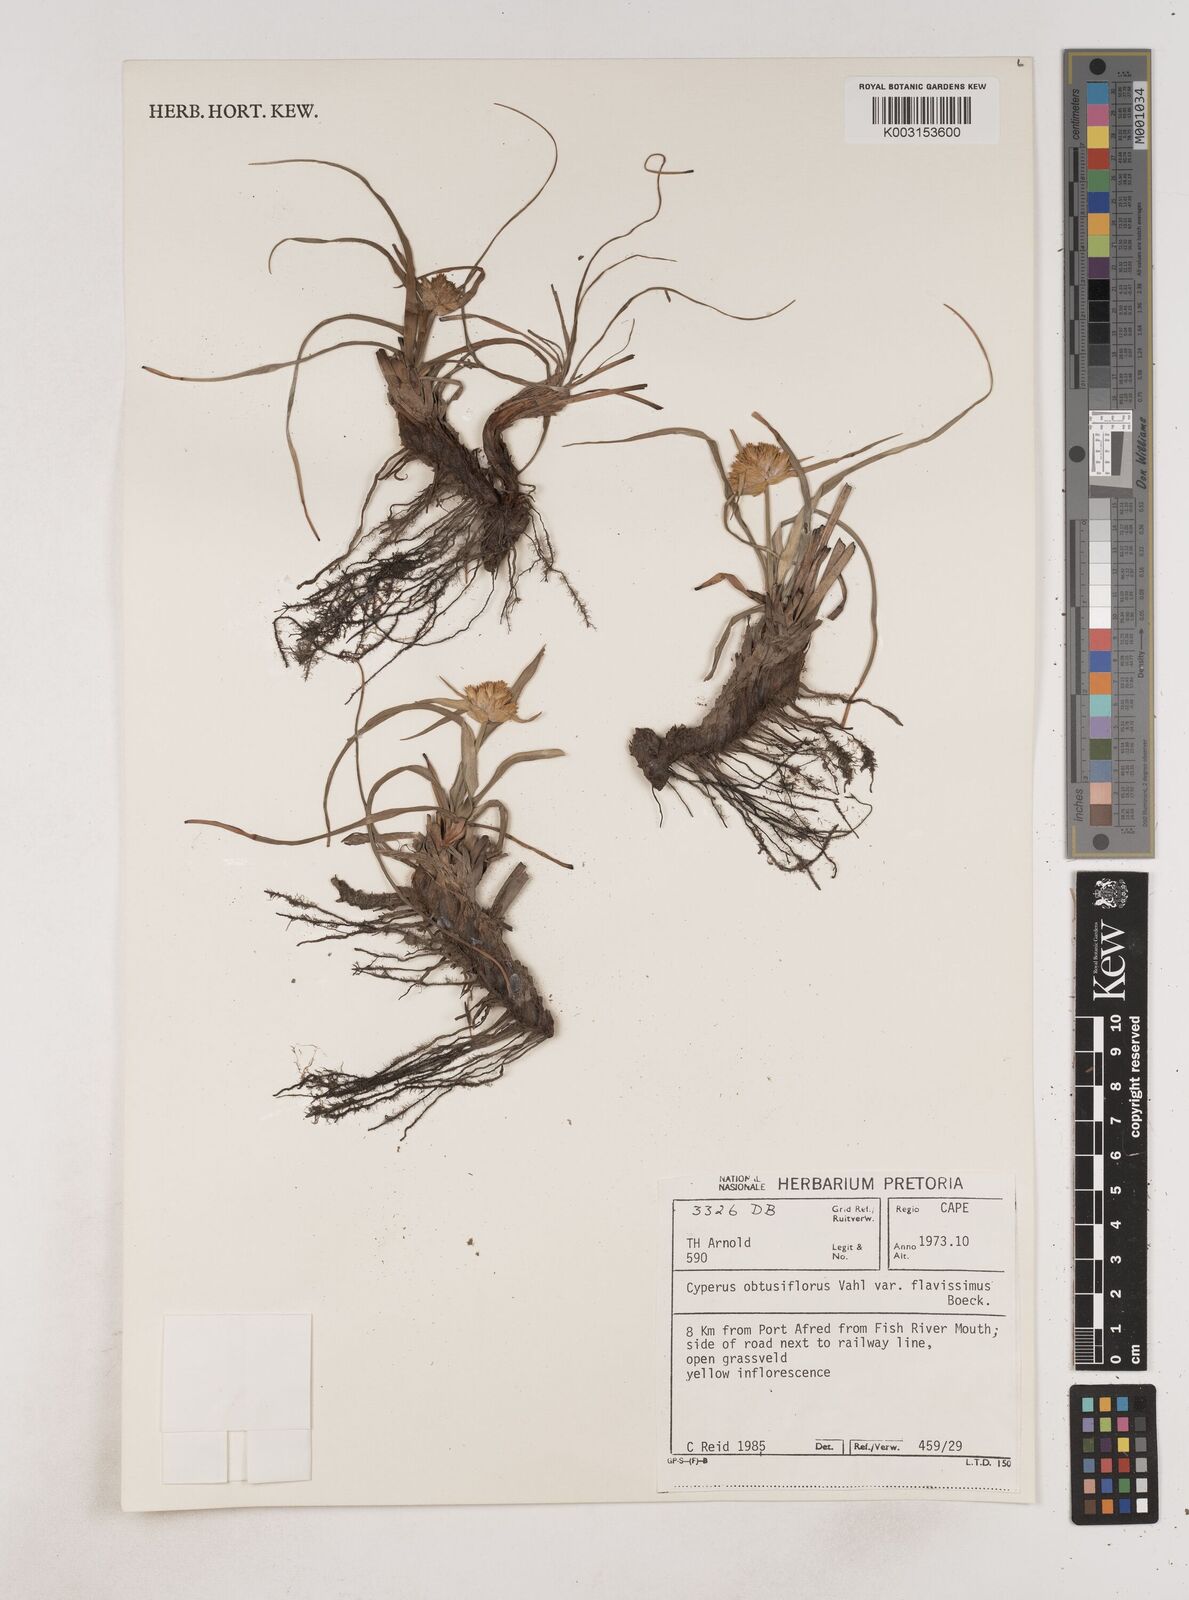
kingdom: Plantae
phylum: Tracheophyta
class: Liliopsida
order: Poales
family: Cyperaceae
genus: Cyperus
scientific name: Cyperus niveus
